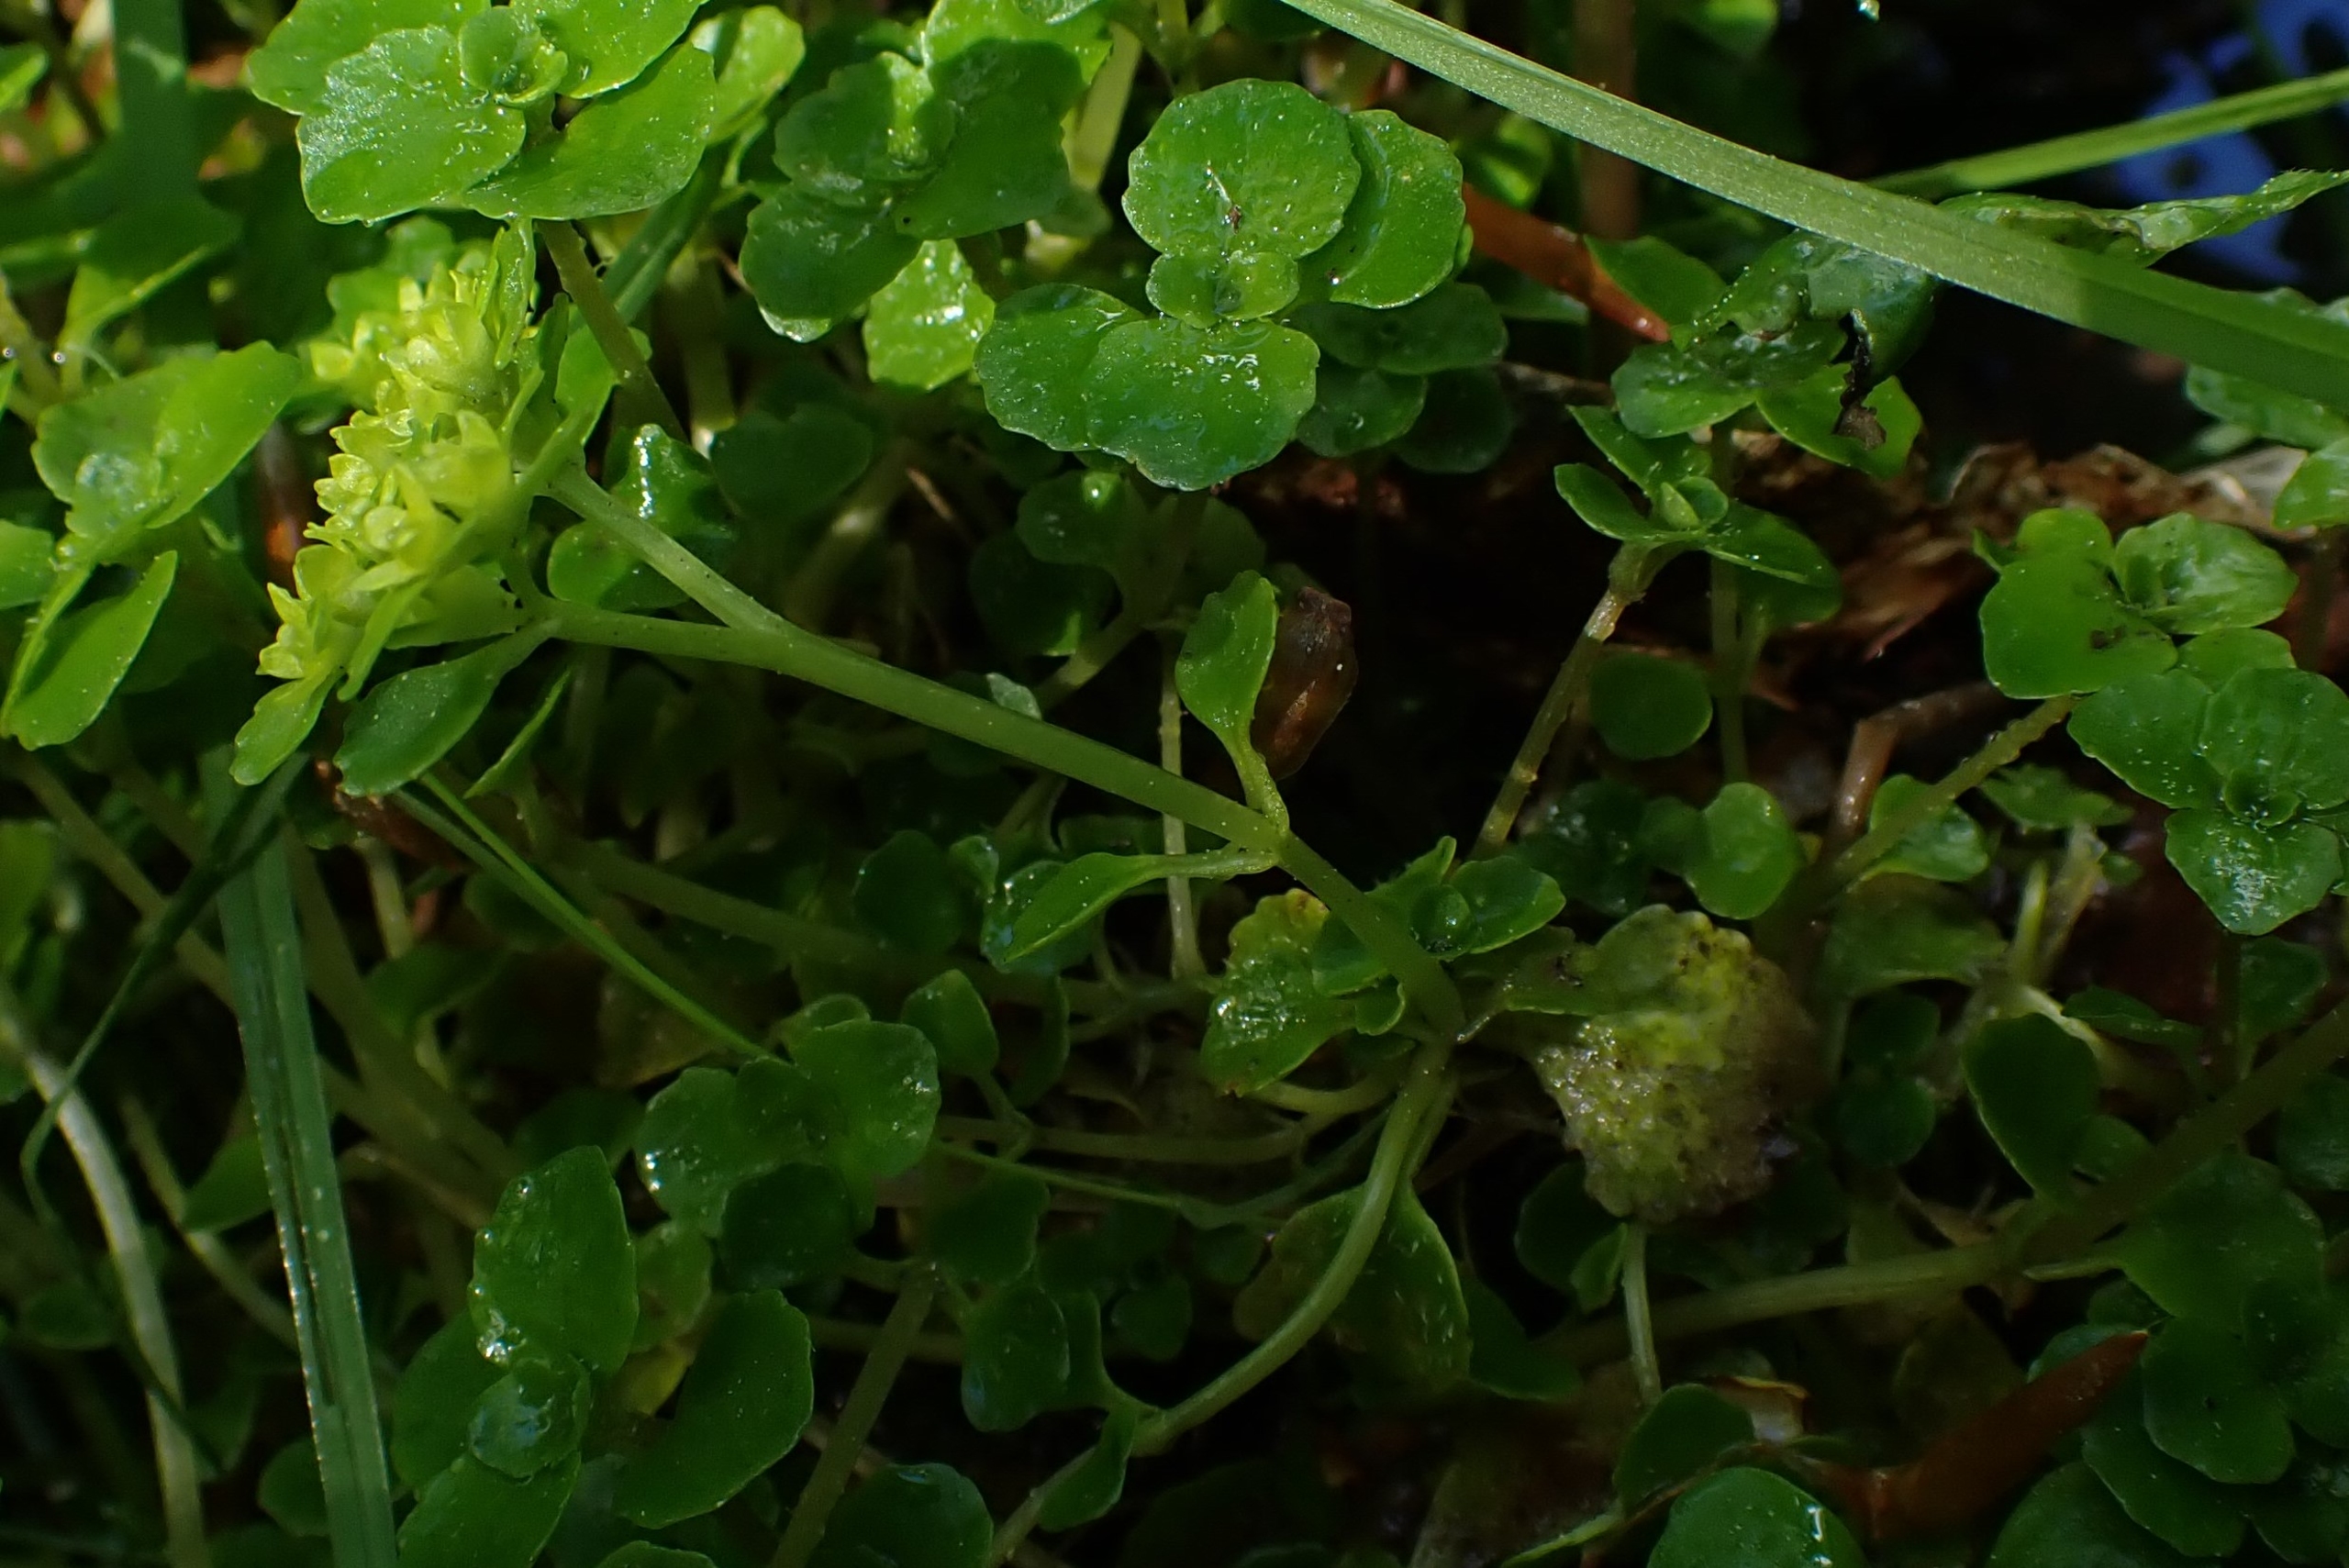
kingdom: Plantae
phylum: Tracheophyta
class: Magnoliopsida
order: Saxifragales
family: Saxifragaceae
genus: Chrysosplenium
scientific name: Chrysosplenium oppositifolium
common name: Småbladet milturt
